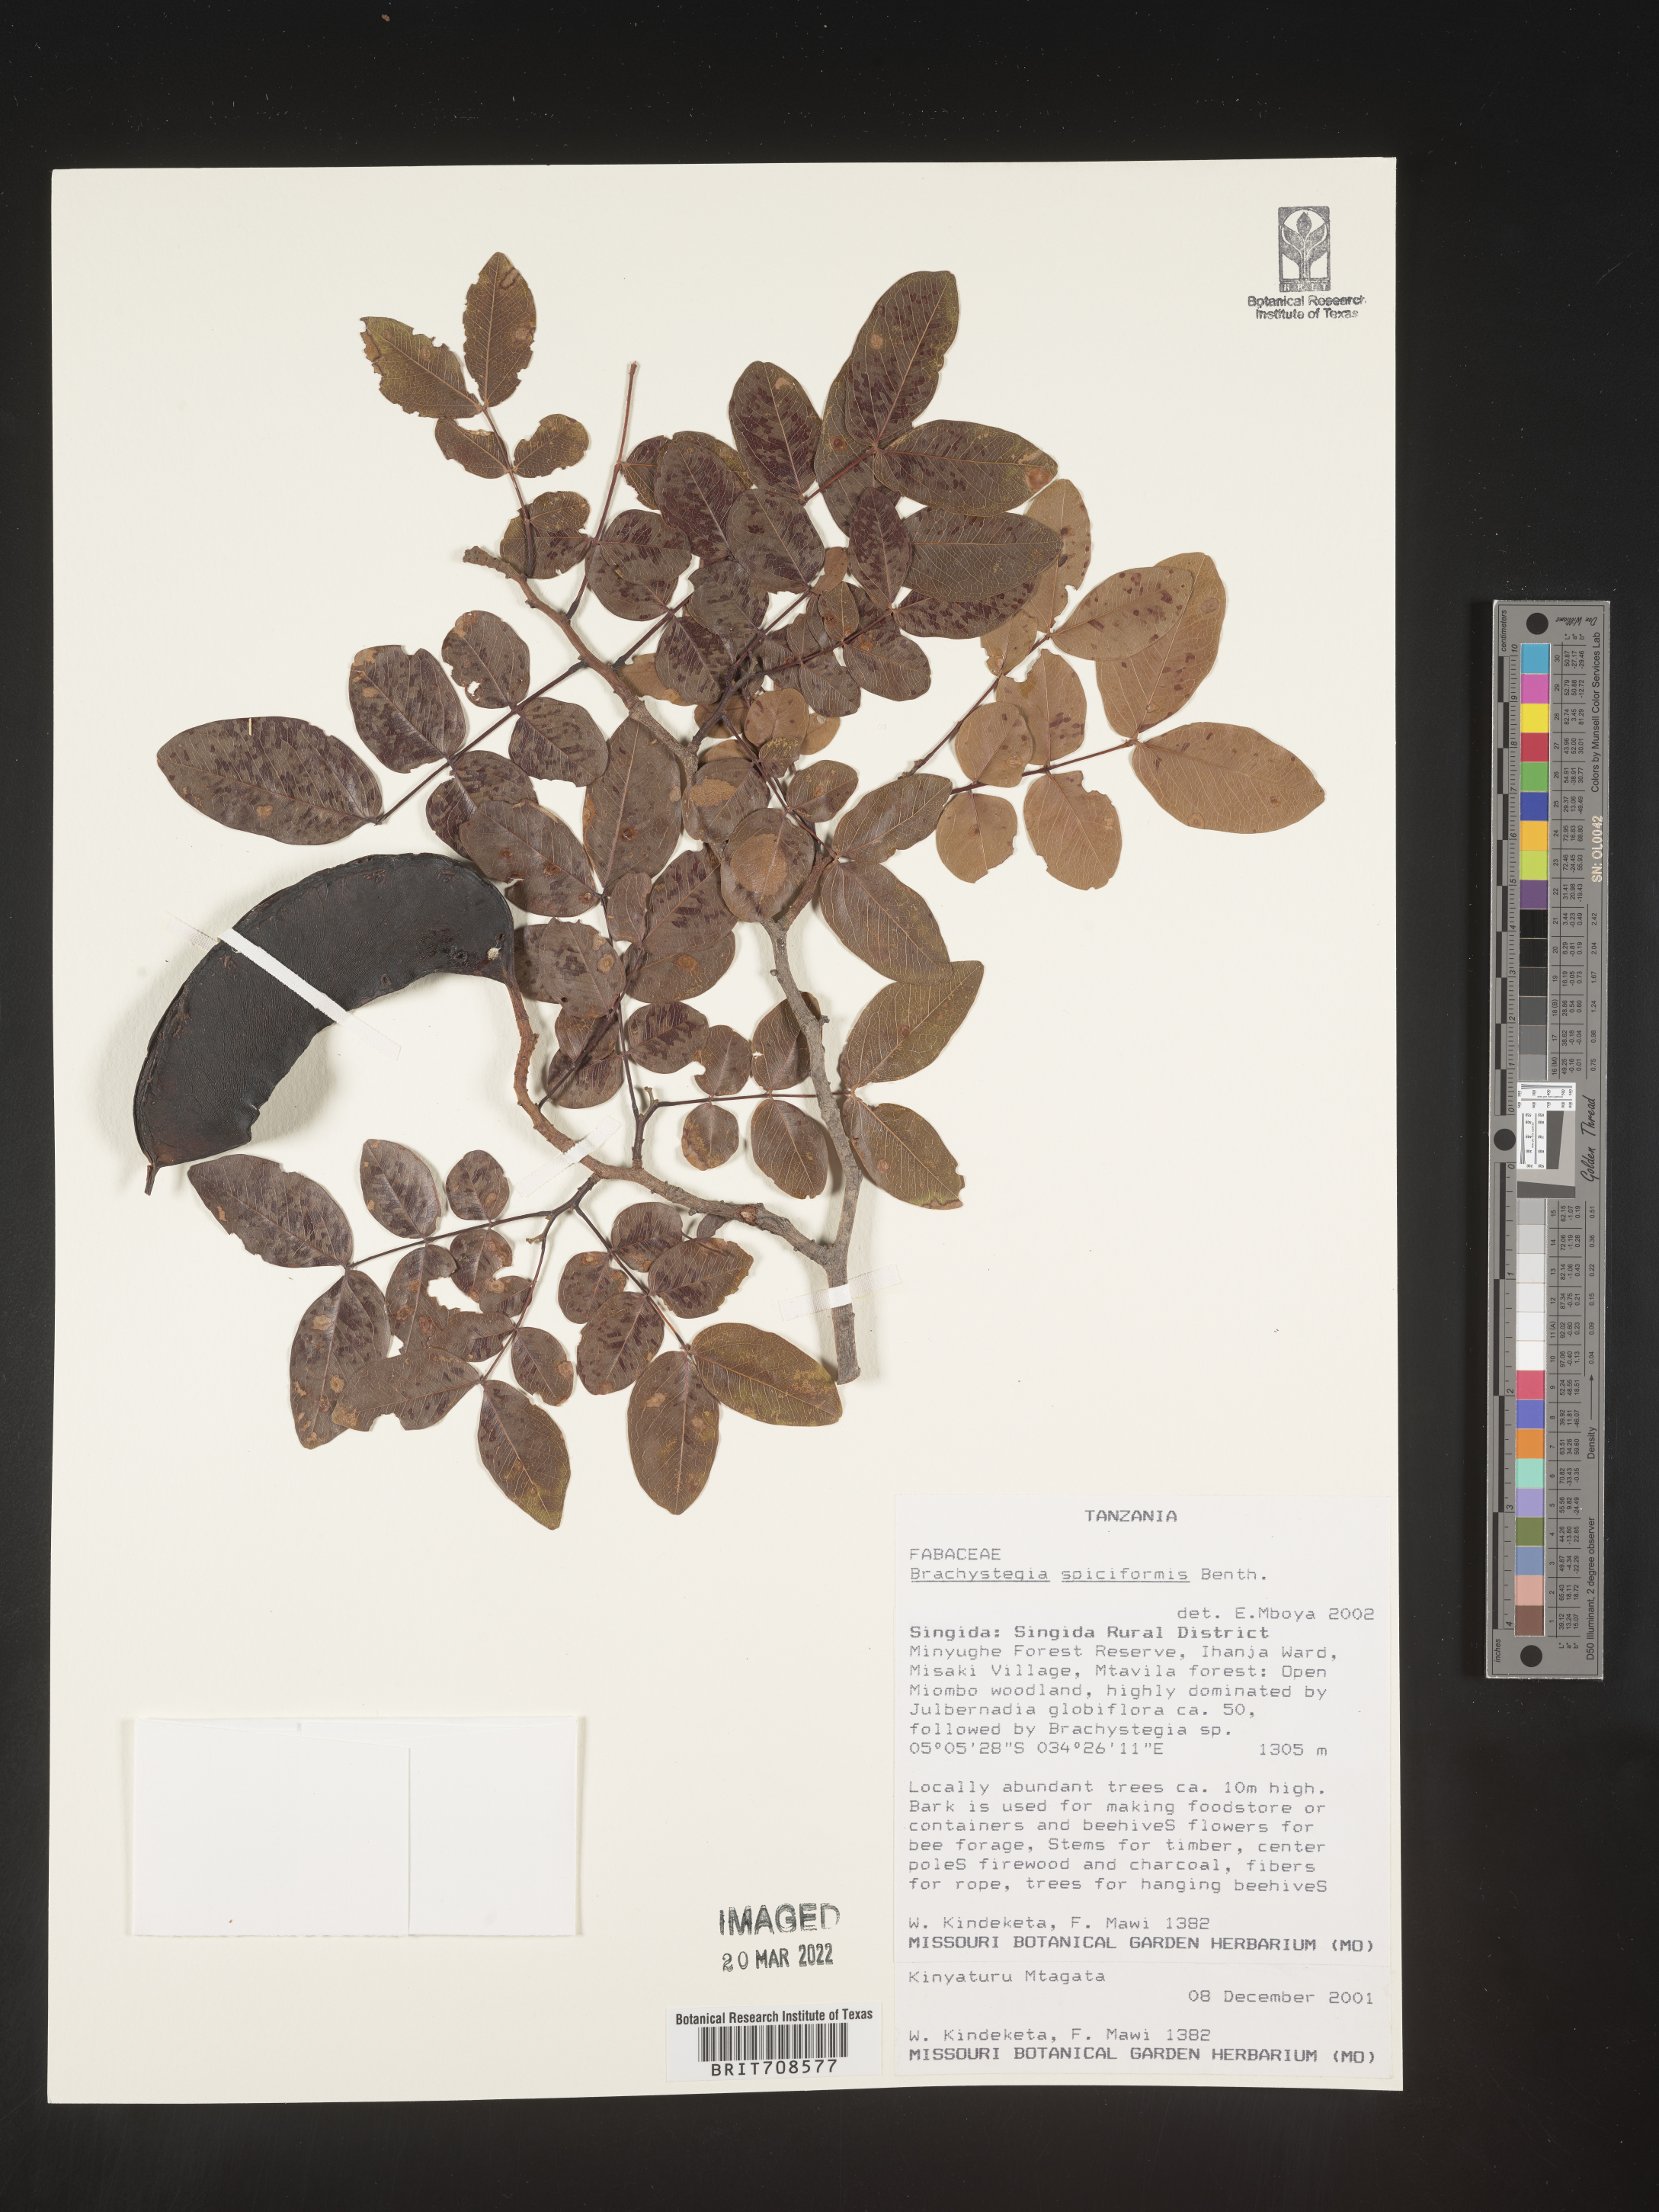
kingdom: Plantae
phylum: Tracheophyta
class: Magnoliopsida
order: Fabales
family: Fabaceae
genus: Brachystegia
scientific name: Brachystegia
